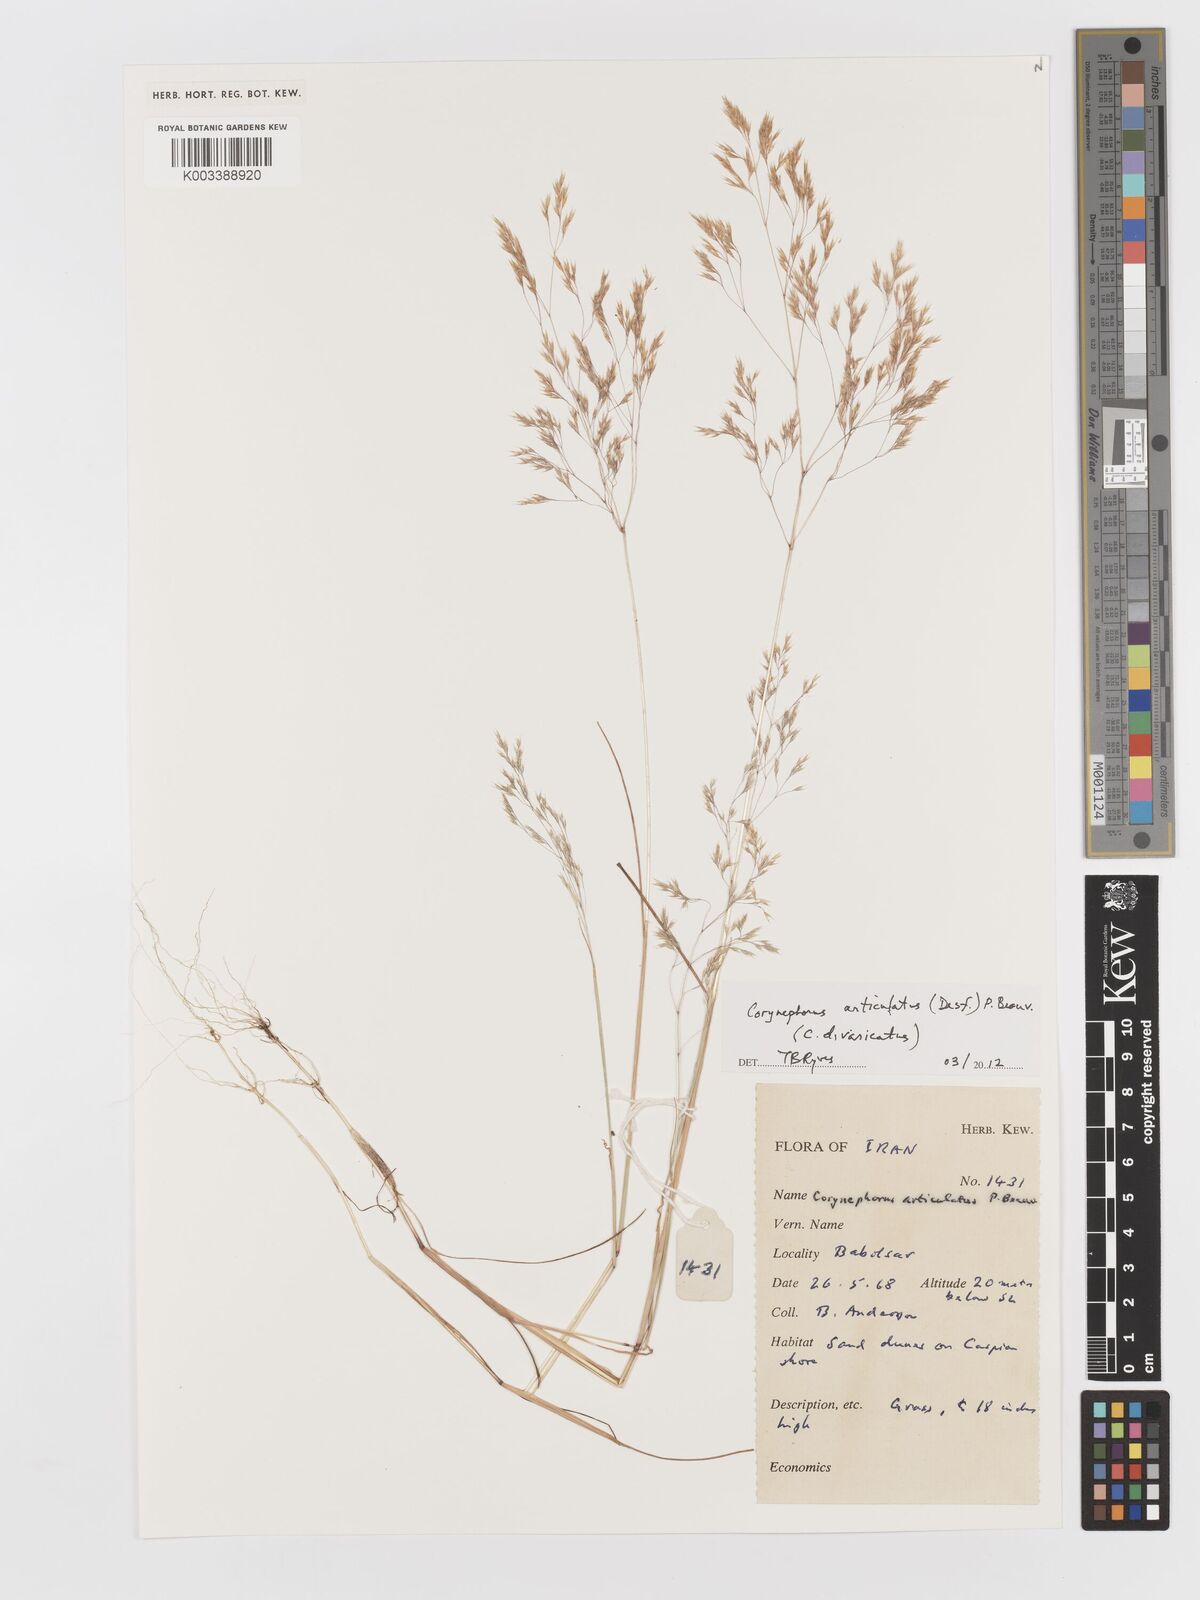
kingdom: Plantae
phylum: Tracheophyta
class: Liliopsida
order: Poales
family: Poaceae
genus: Corynephorus
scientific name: Corynephorus divaricatus
